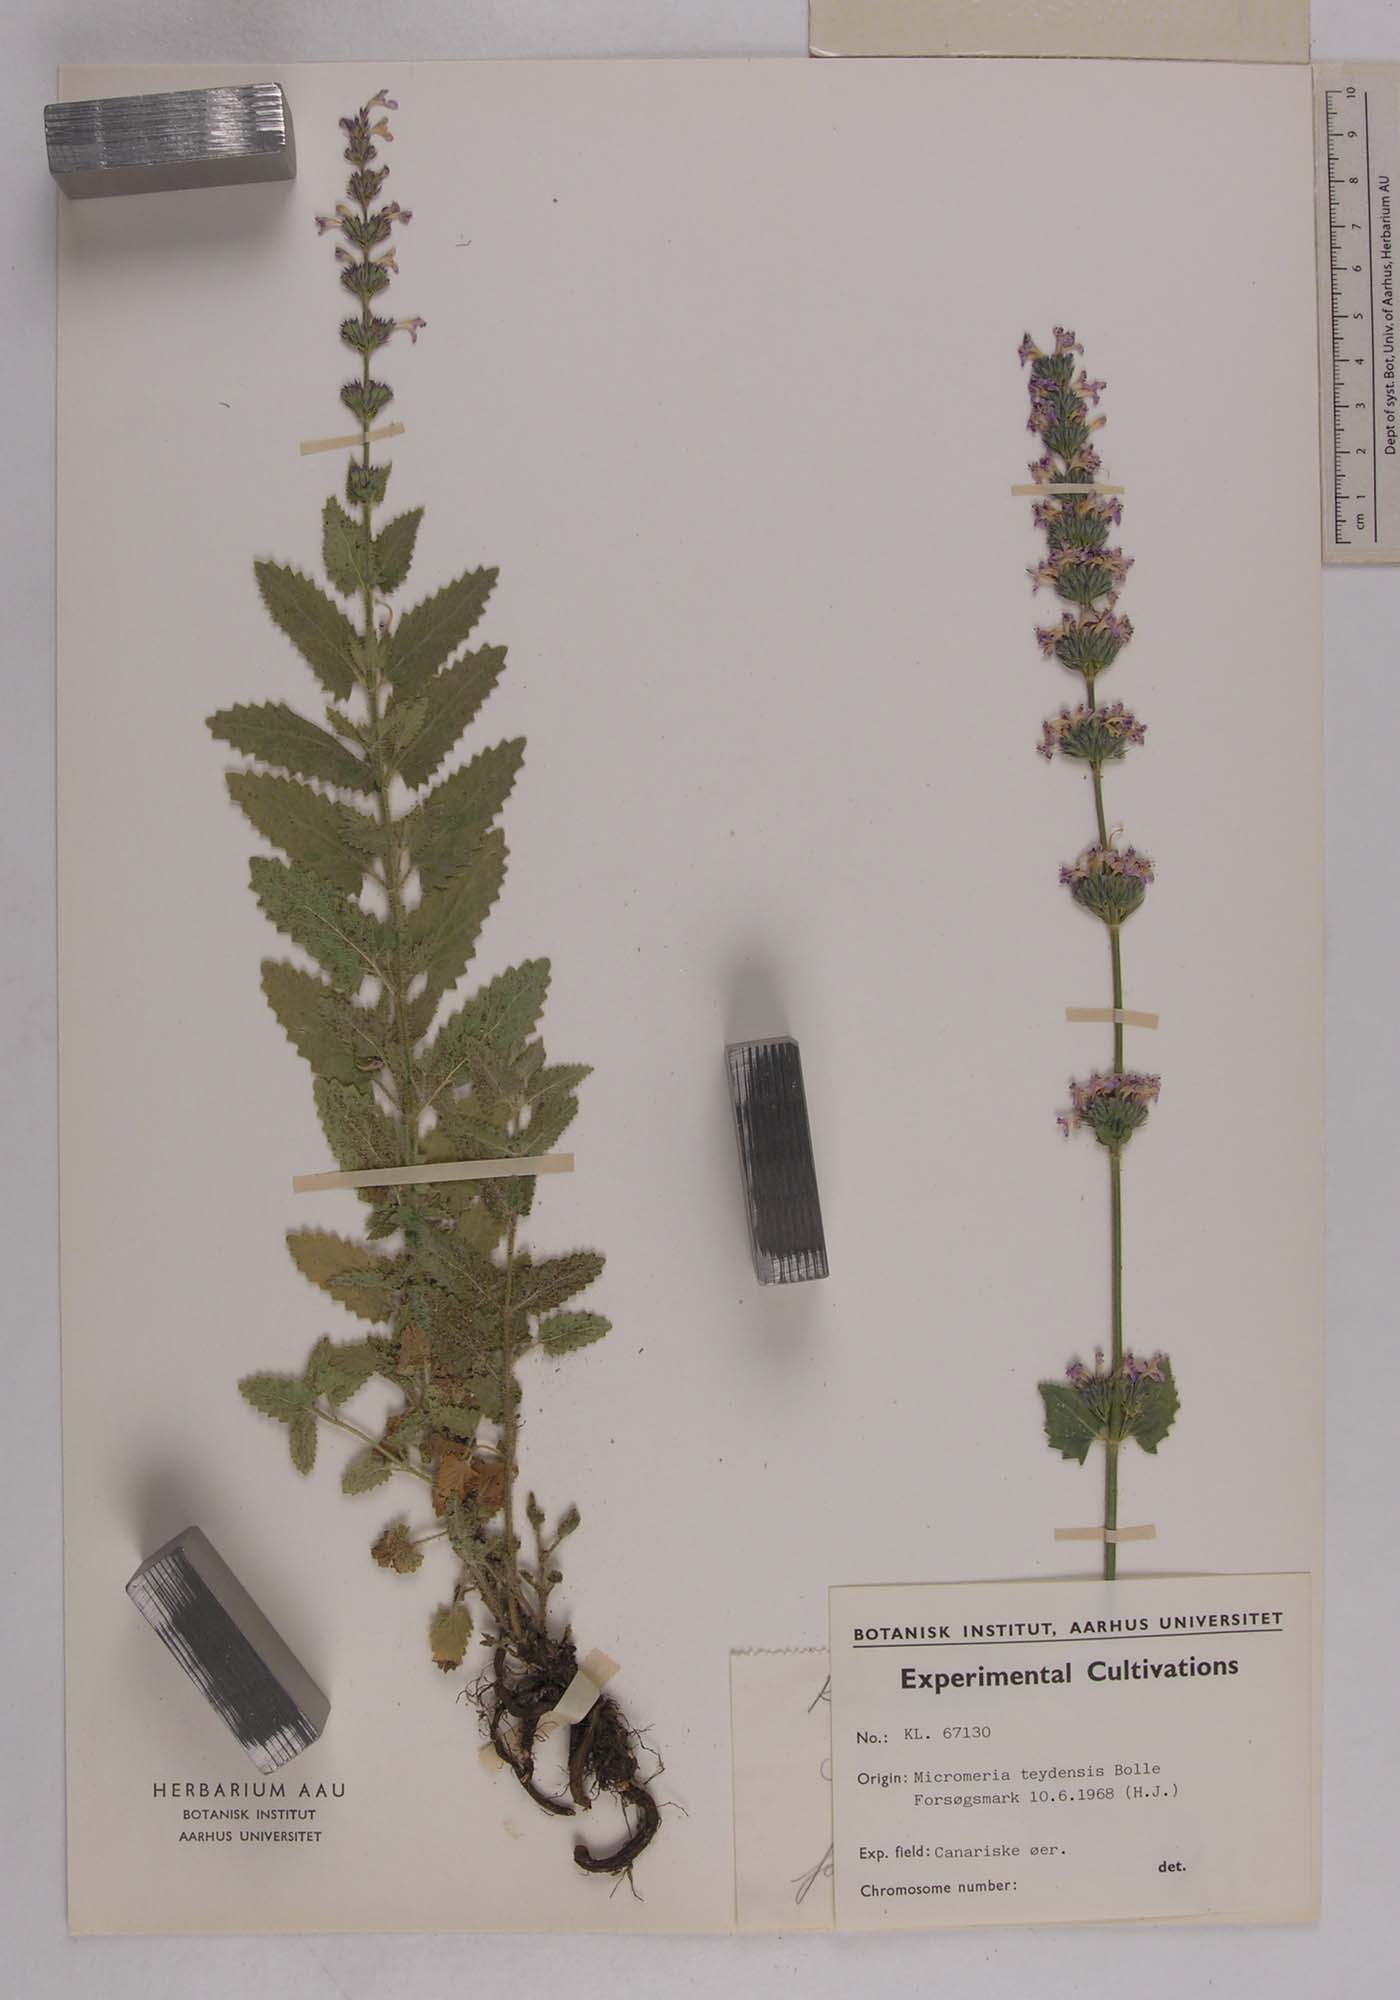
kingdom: Plantae
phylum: Tracheophyta
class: Magnoliopsida
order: Lamiales
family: Lamiaceae
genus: Micromeria
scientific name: Micromeria lachnophylla
